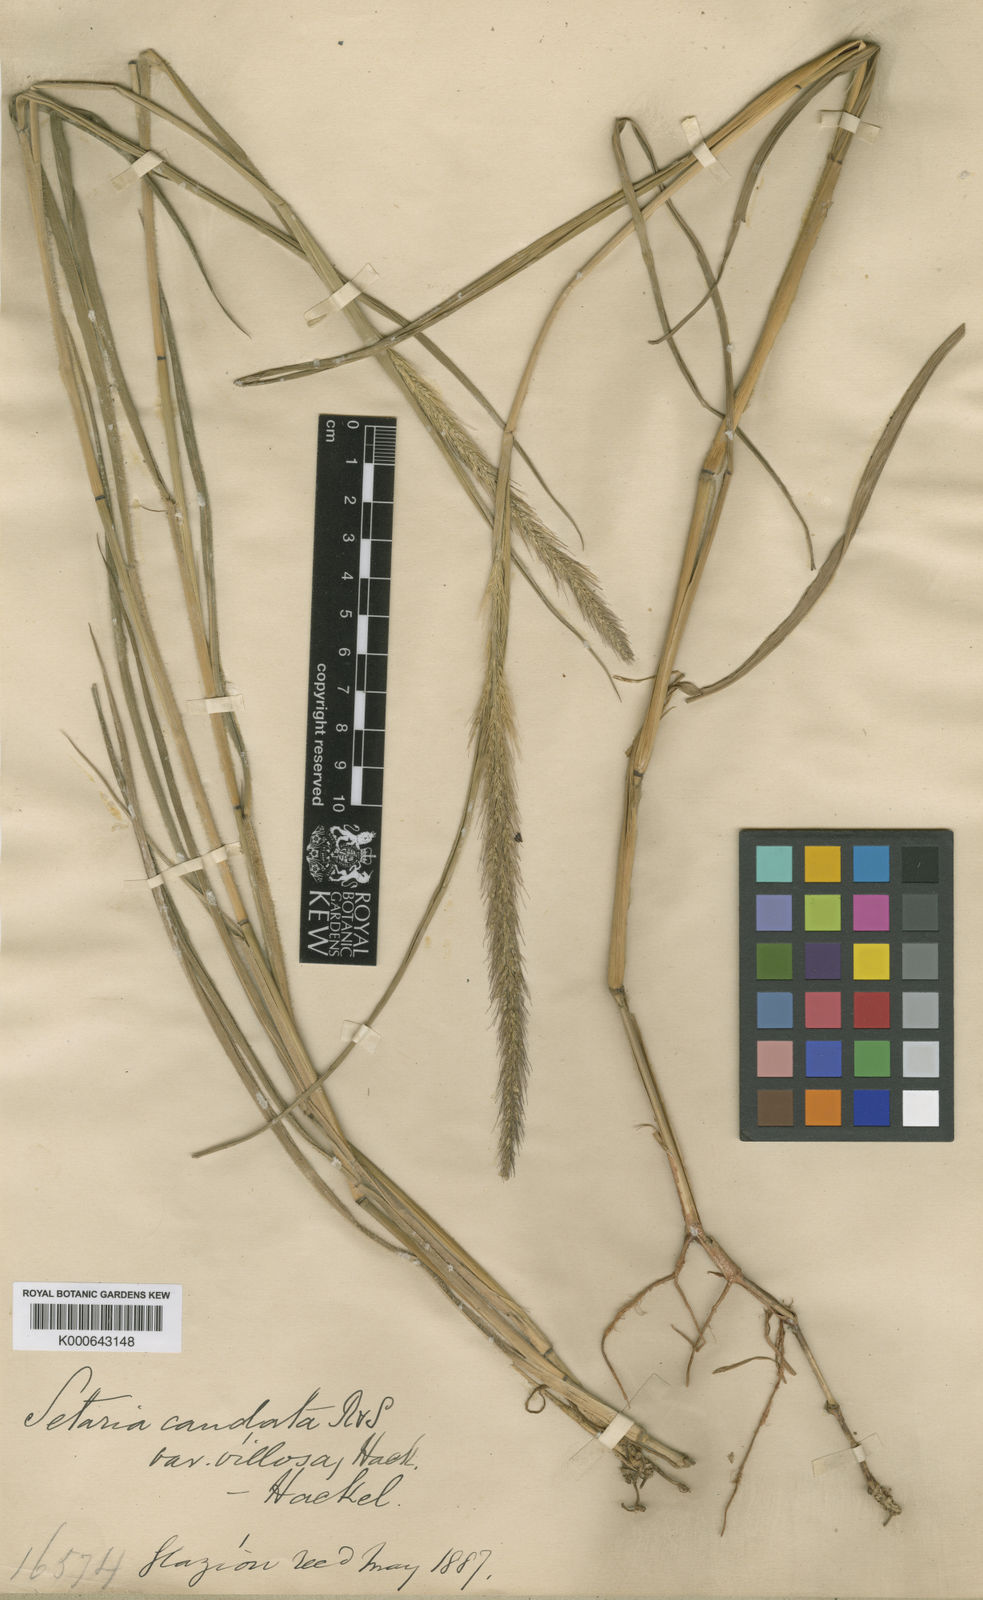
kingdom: Plantae
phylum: Tracheophyta
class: Liliopsida
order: Poales
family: Poaceae
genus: Setaria
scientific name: Setaria scabrifolia
